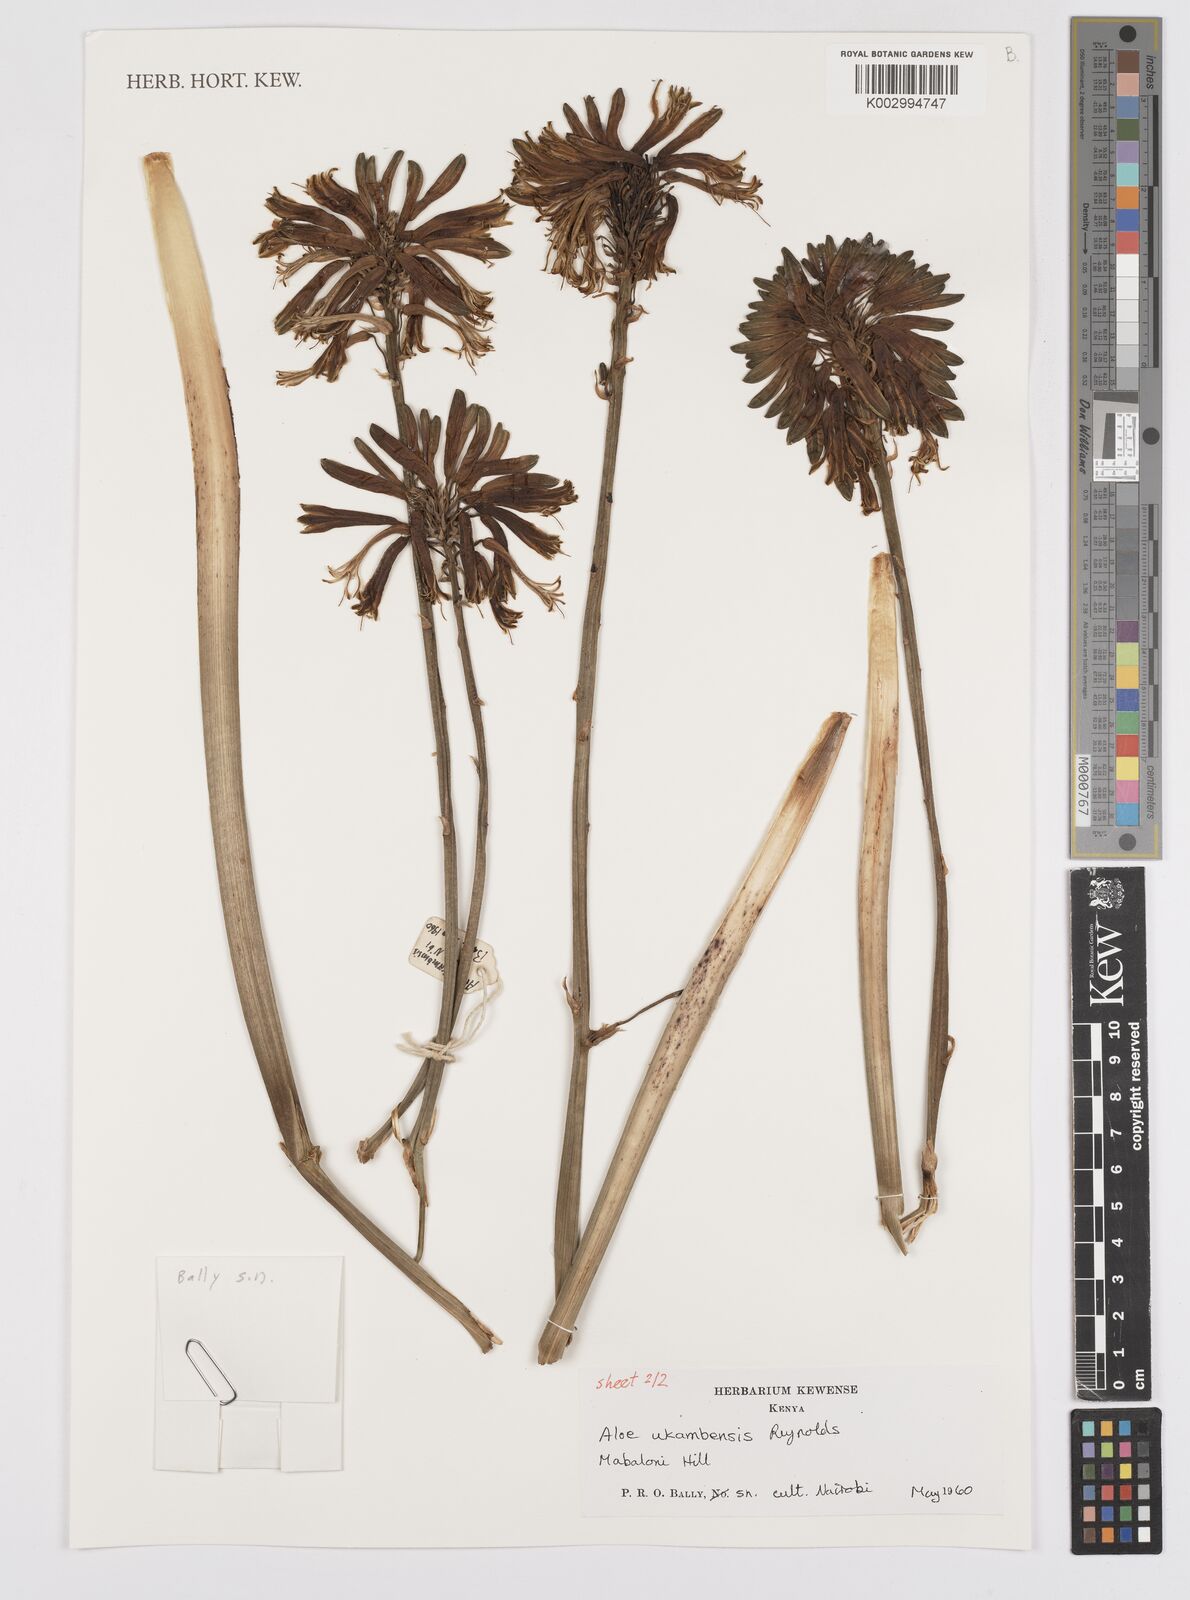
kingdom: Plantae
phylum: Tracheophyta
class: Liliopsida
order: Asparagales
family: Asphodelaceae
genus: Aloe
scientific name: Aloe ukambensis
